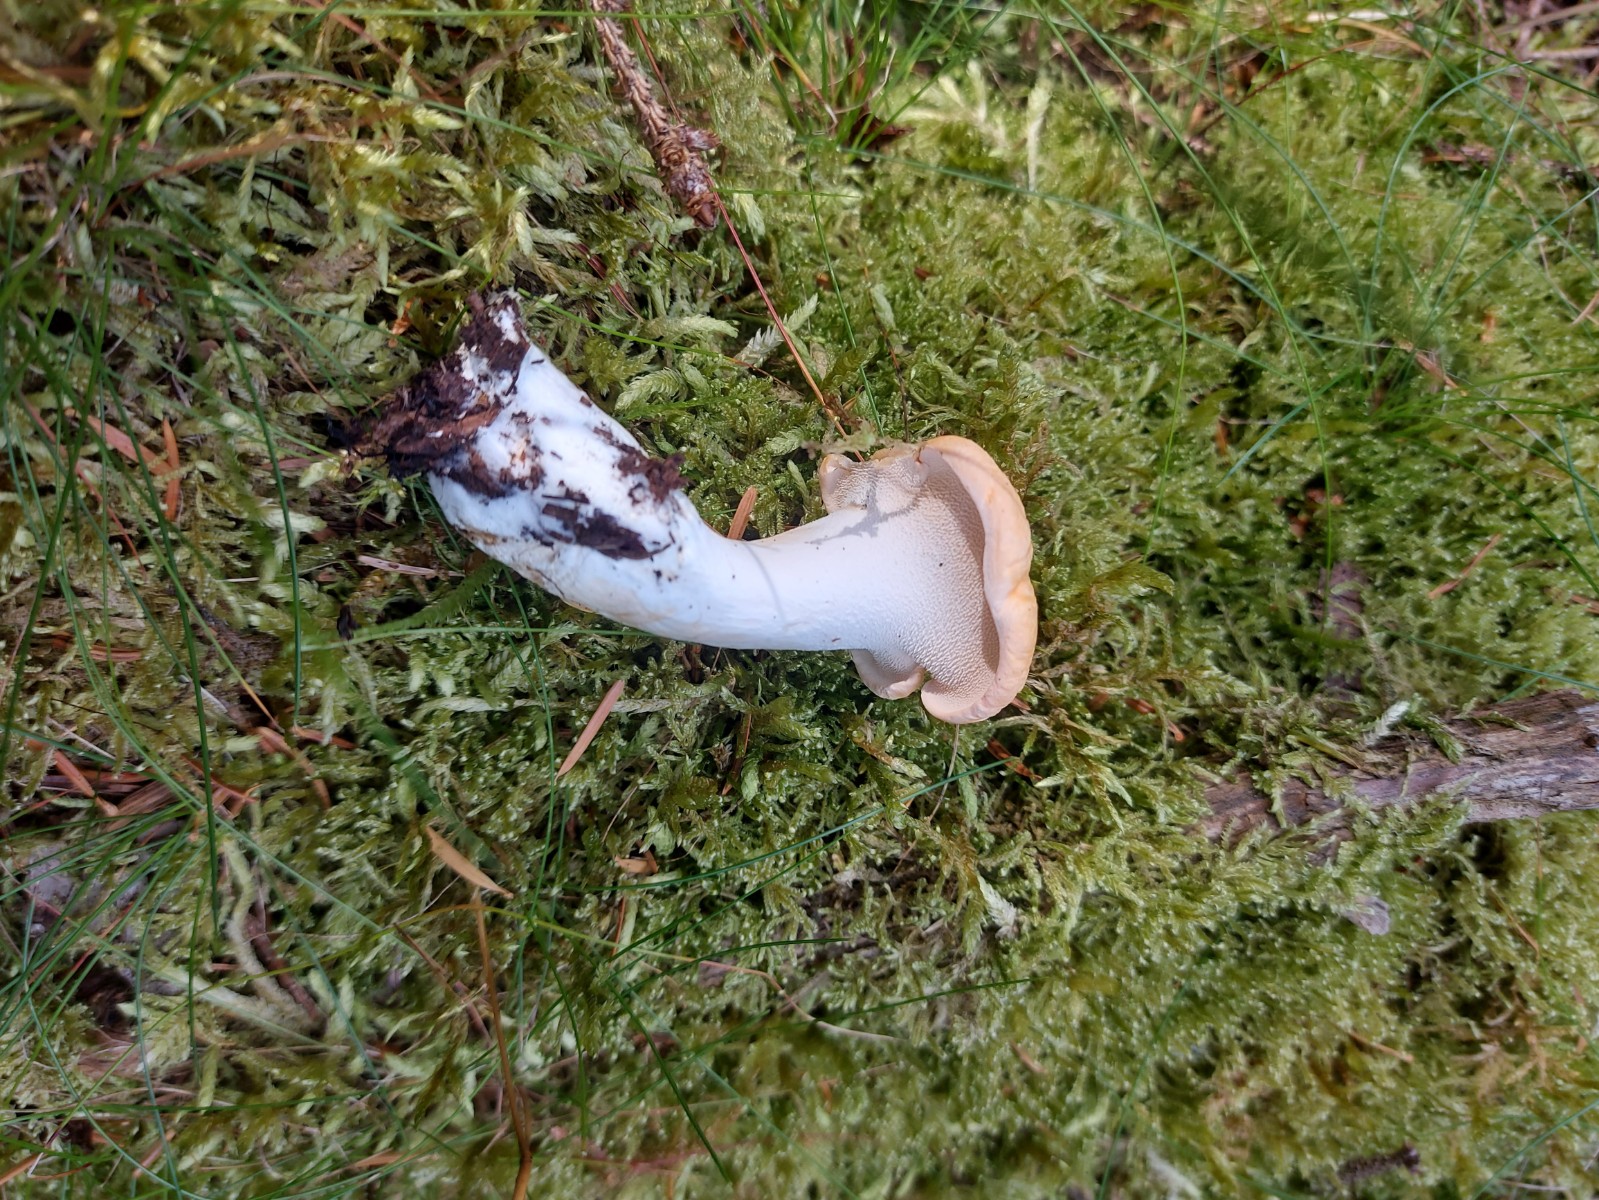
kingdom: Fungi
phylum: Basidiomycota
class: Agaricomycetes
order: Cantharellales
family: Hydnaceae
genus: Hydnum
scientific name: Hydnum
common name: pigsvamp
